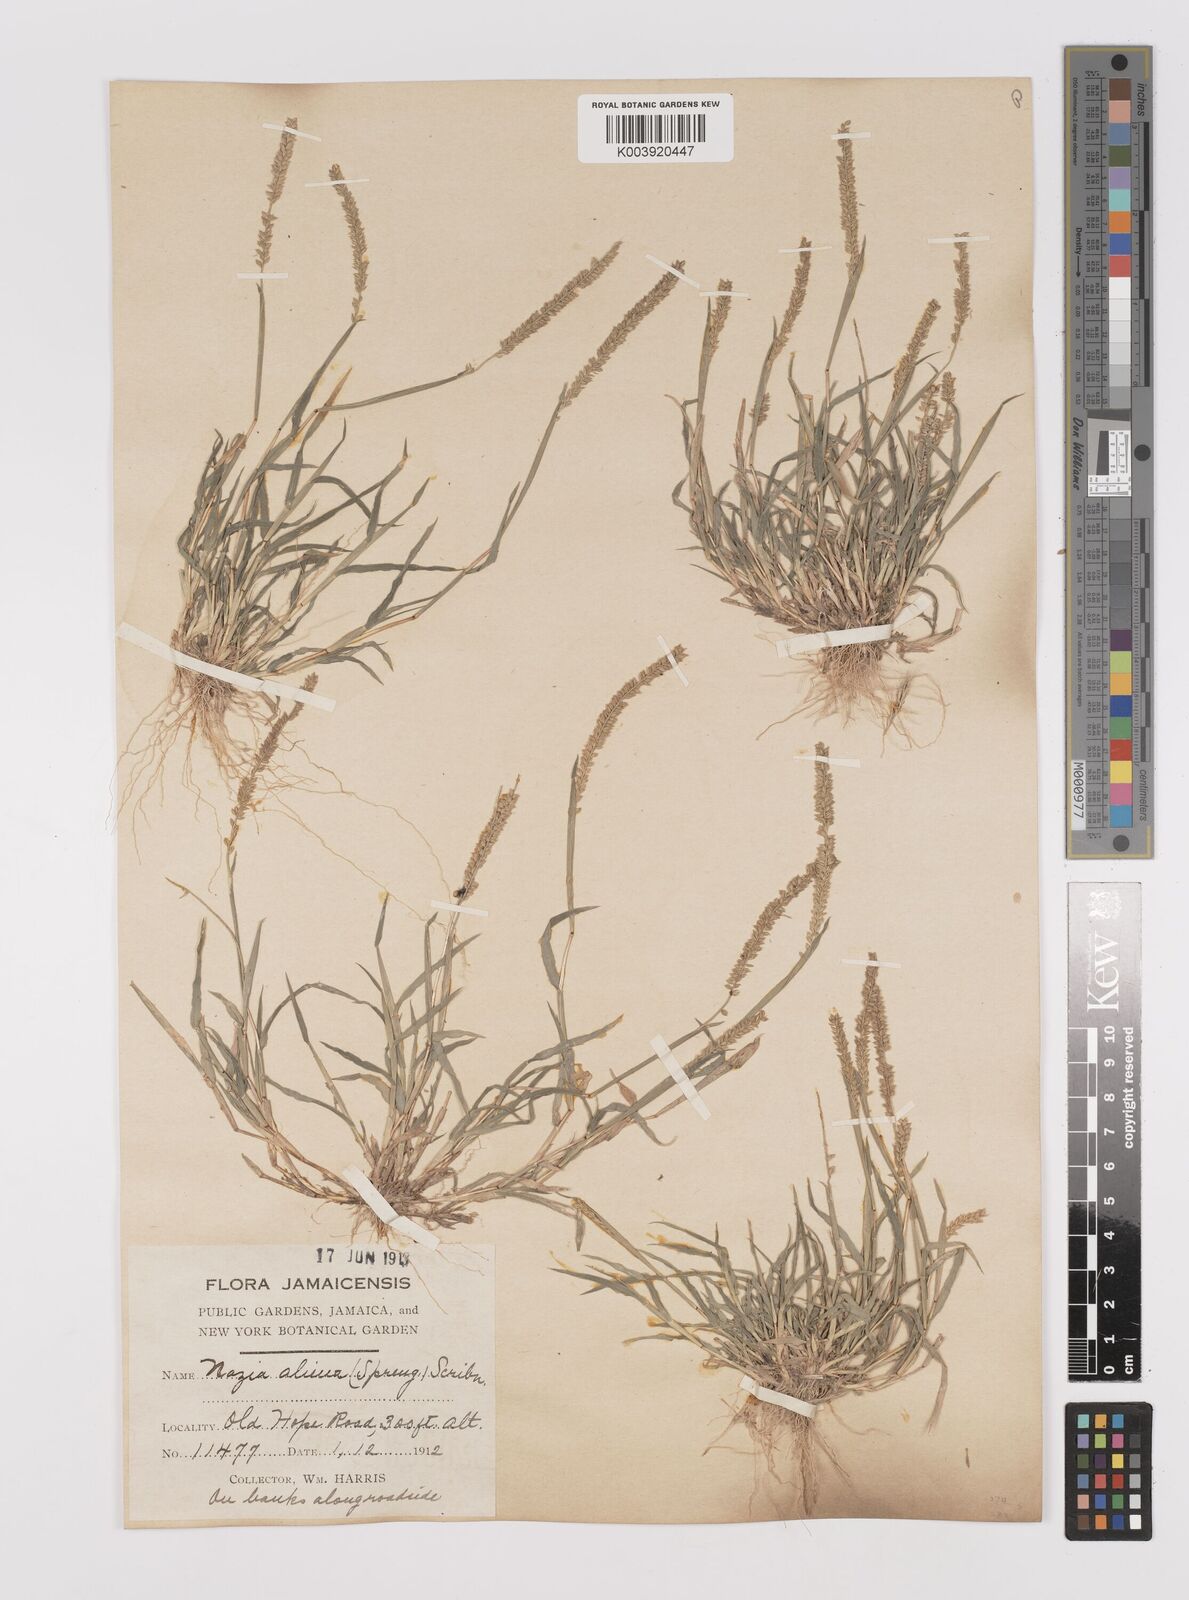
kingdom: Plantae
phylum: Tracheophyta
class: Liliopsida
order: Poales
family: Poaceae
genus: Tragus
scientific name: Tragus berteronianus
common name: African bur-grass
